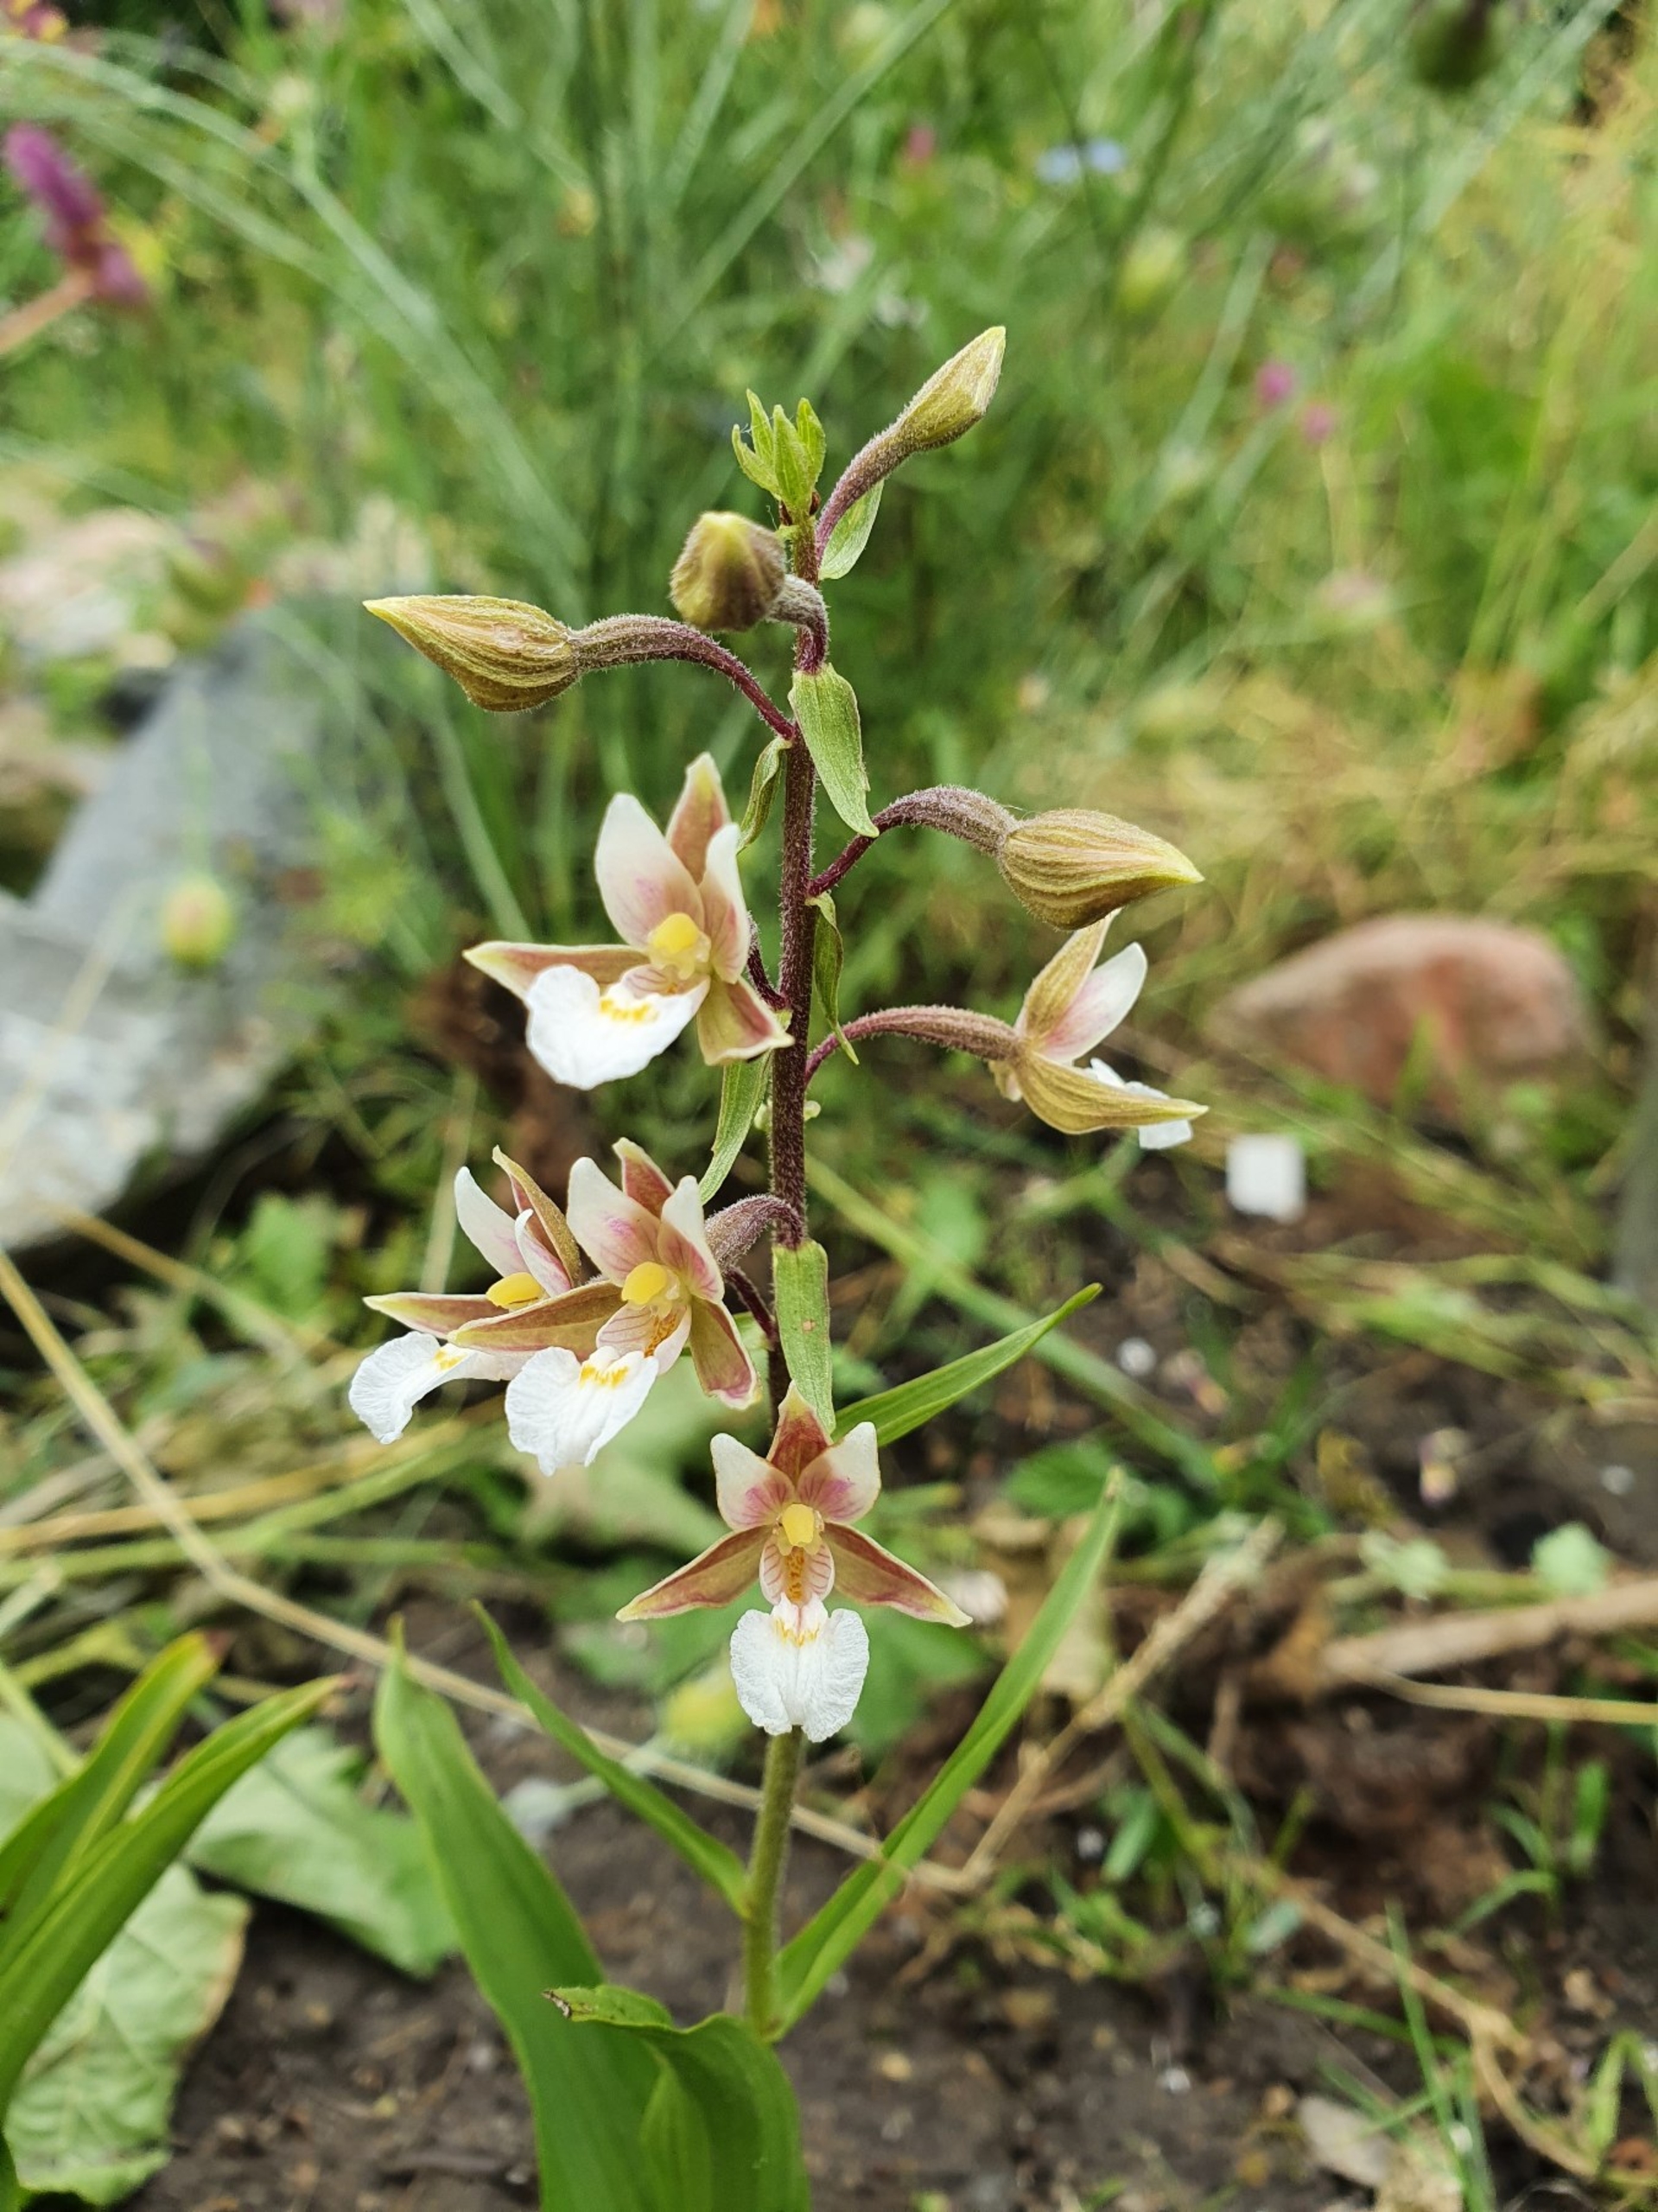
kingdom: Plantae
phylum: Tracheophyta
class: Liliopsida
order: Asparagales
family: Orchidaceae
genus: Epipactis
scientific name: Epipactis palustris
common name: Sump-hullæbe
